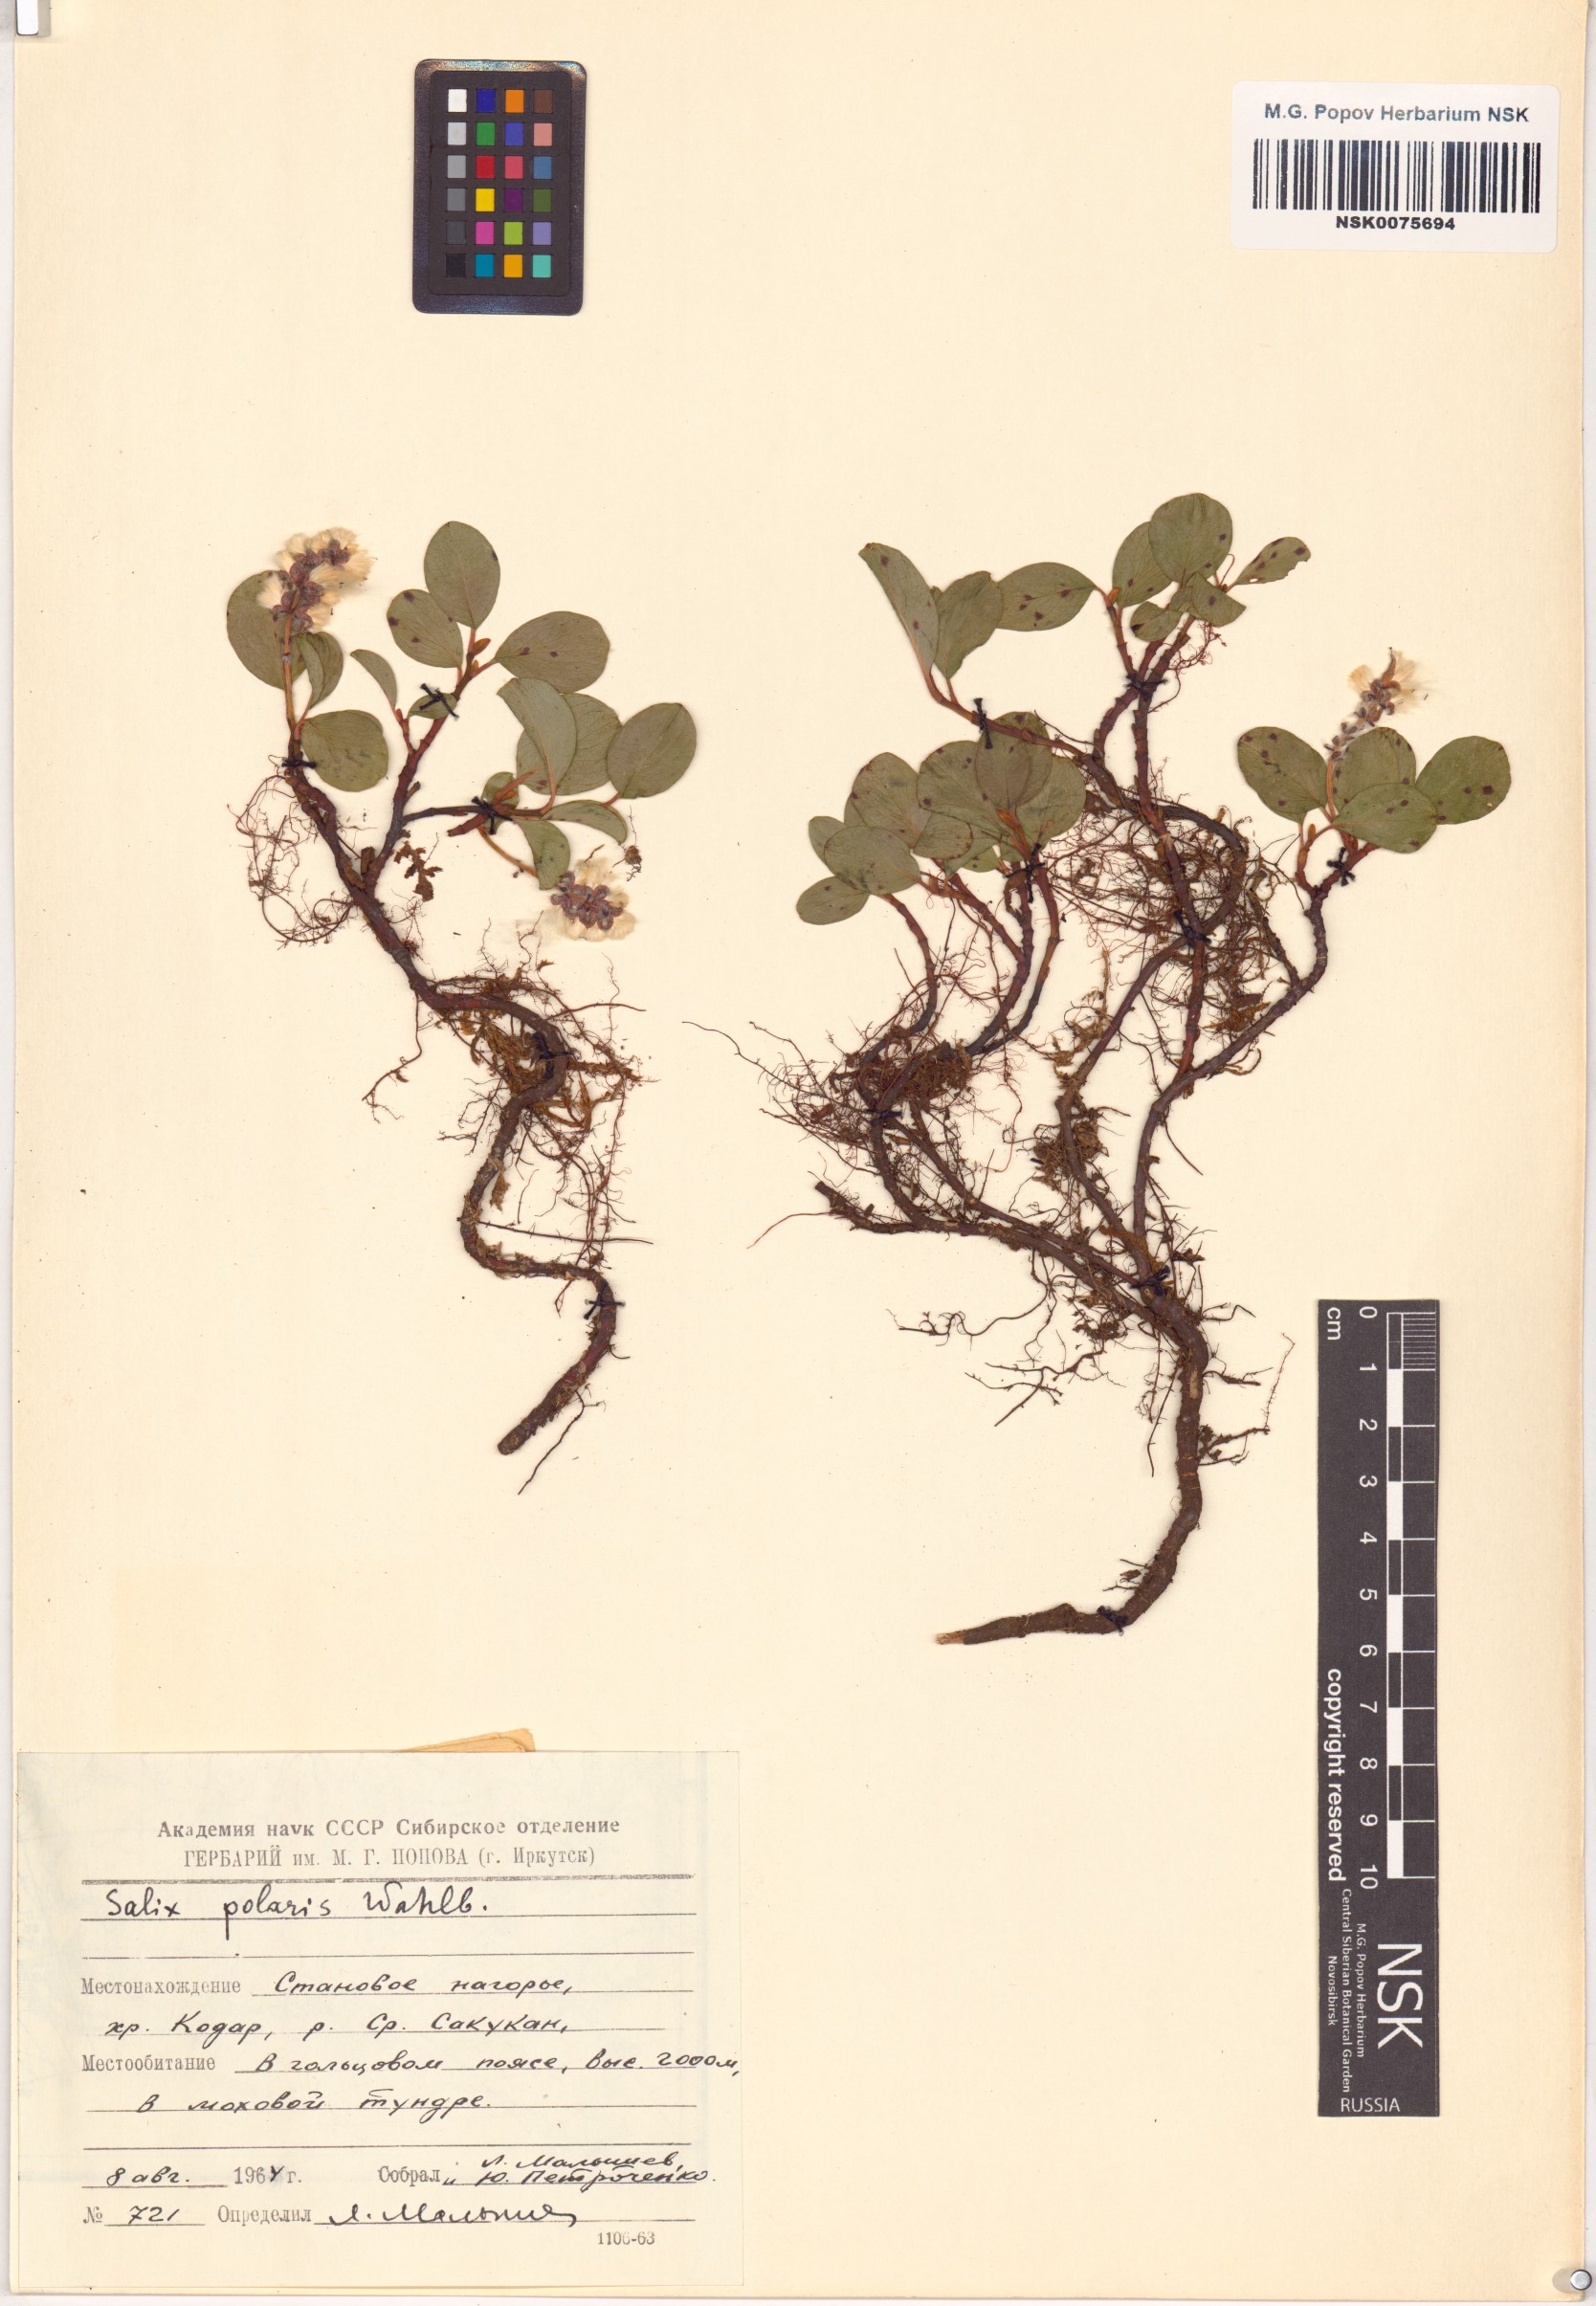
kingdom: Plantae
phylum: Tracheophyta
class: Magnoliopsida
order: Malpighiales
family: Salicaceae
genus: Salix
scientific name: Salix polaris
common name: Polar willow
